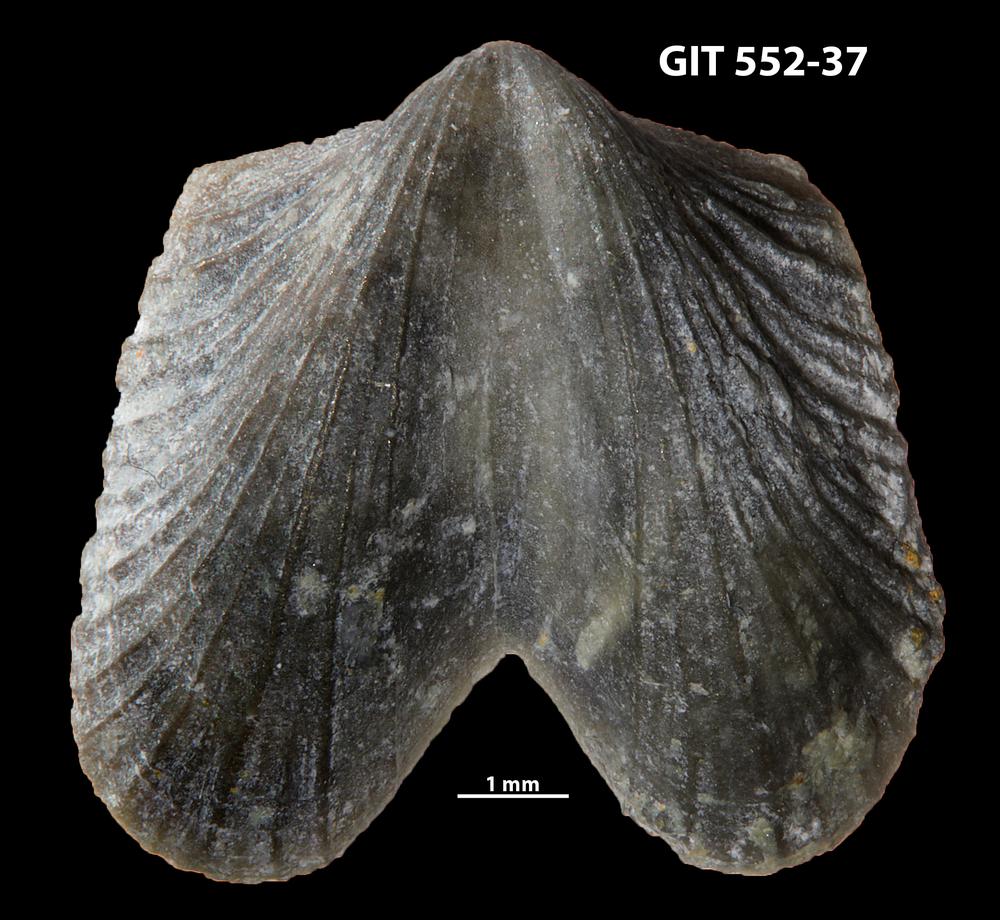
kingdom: Animalia
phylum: Brachiopoda
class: Rhynchonellata
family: Dicoelosiidae
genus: Dicoelosia
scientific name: Dicoelosia paralata
